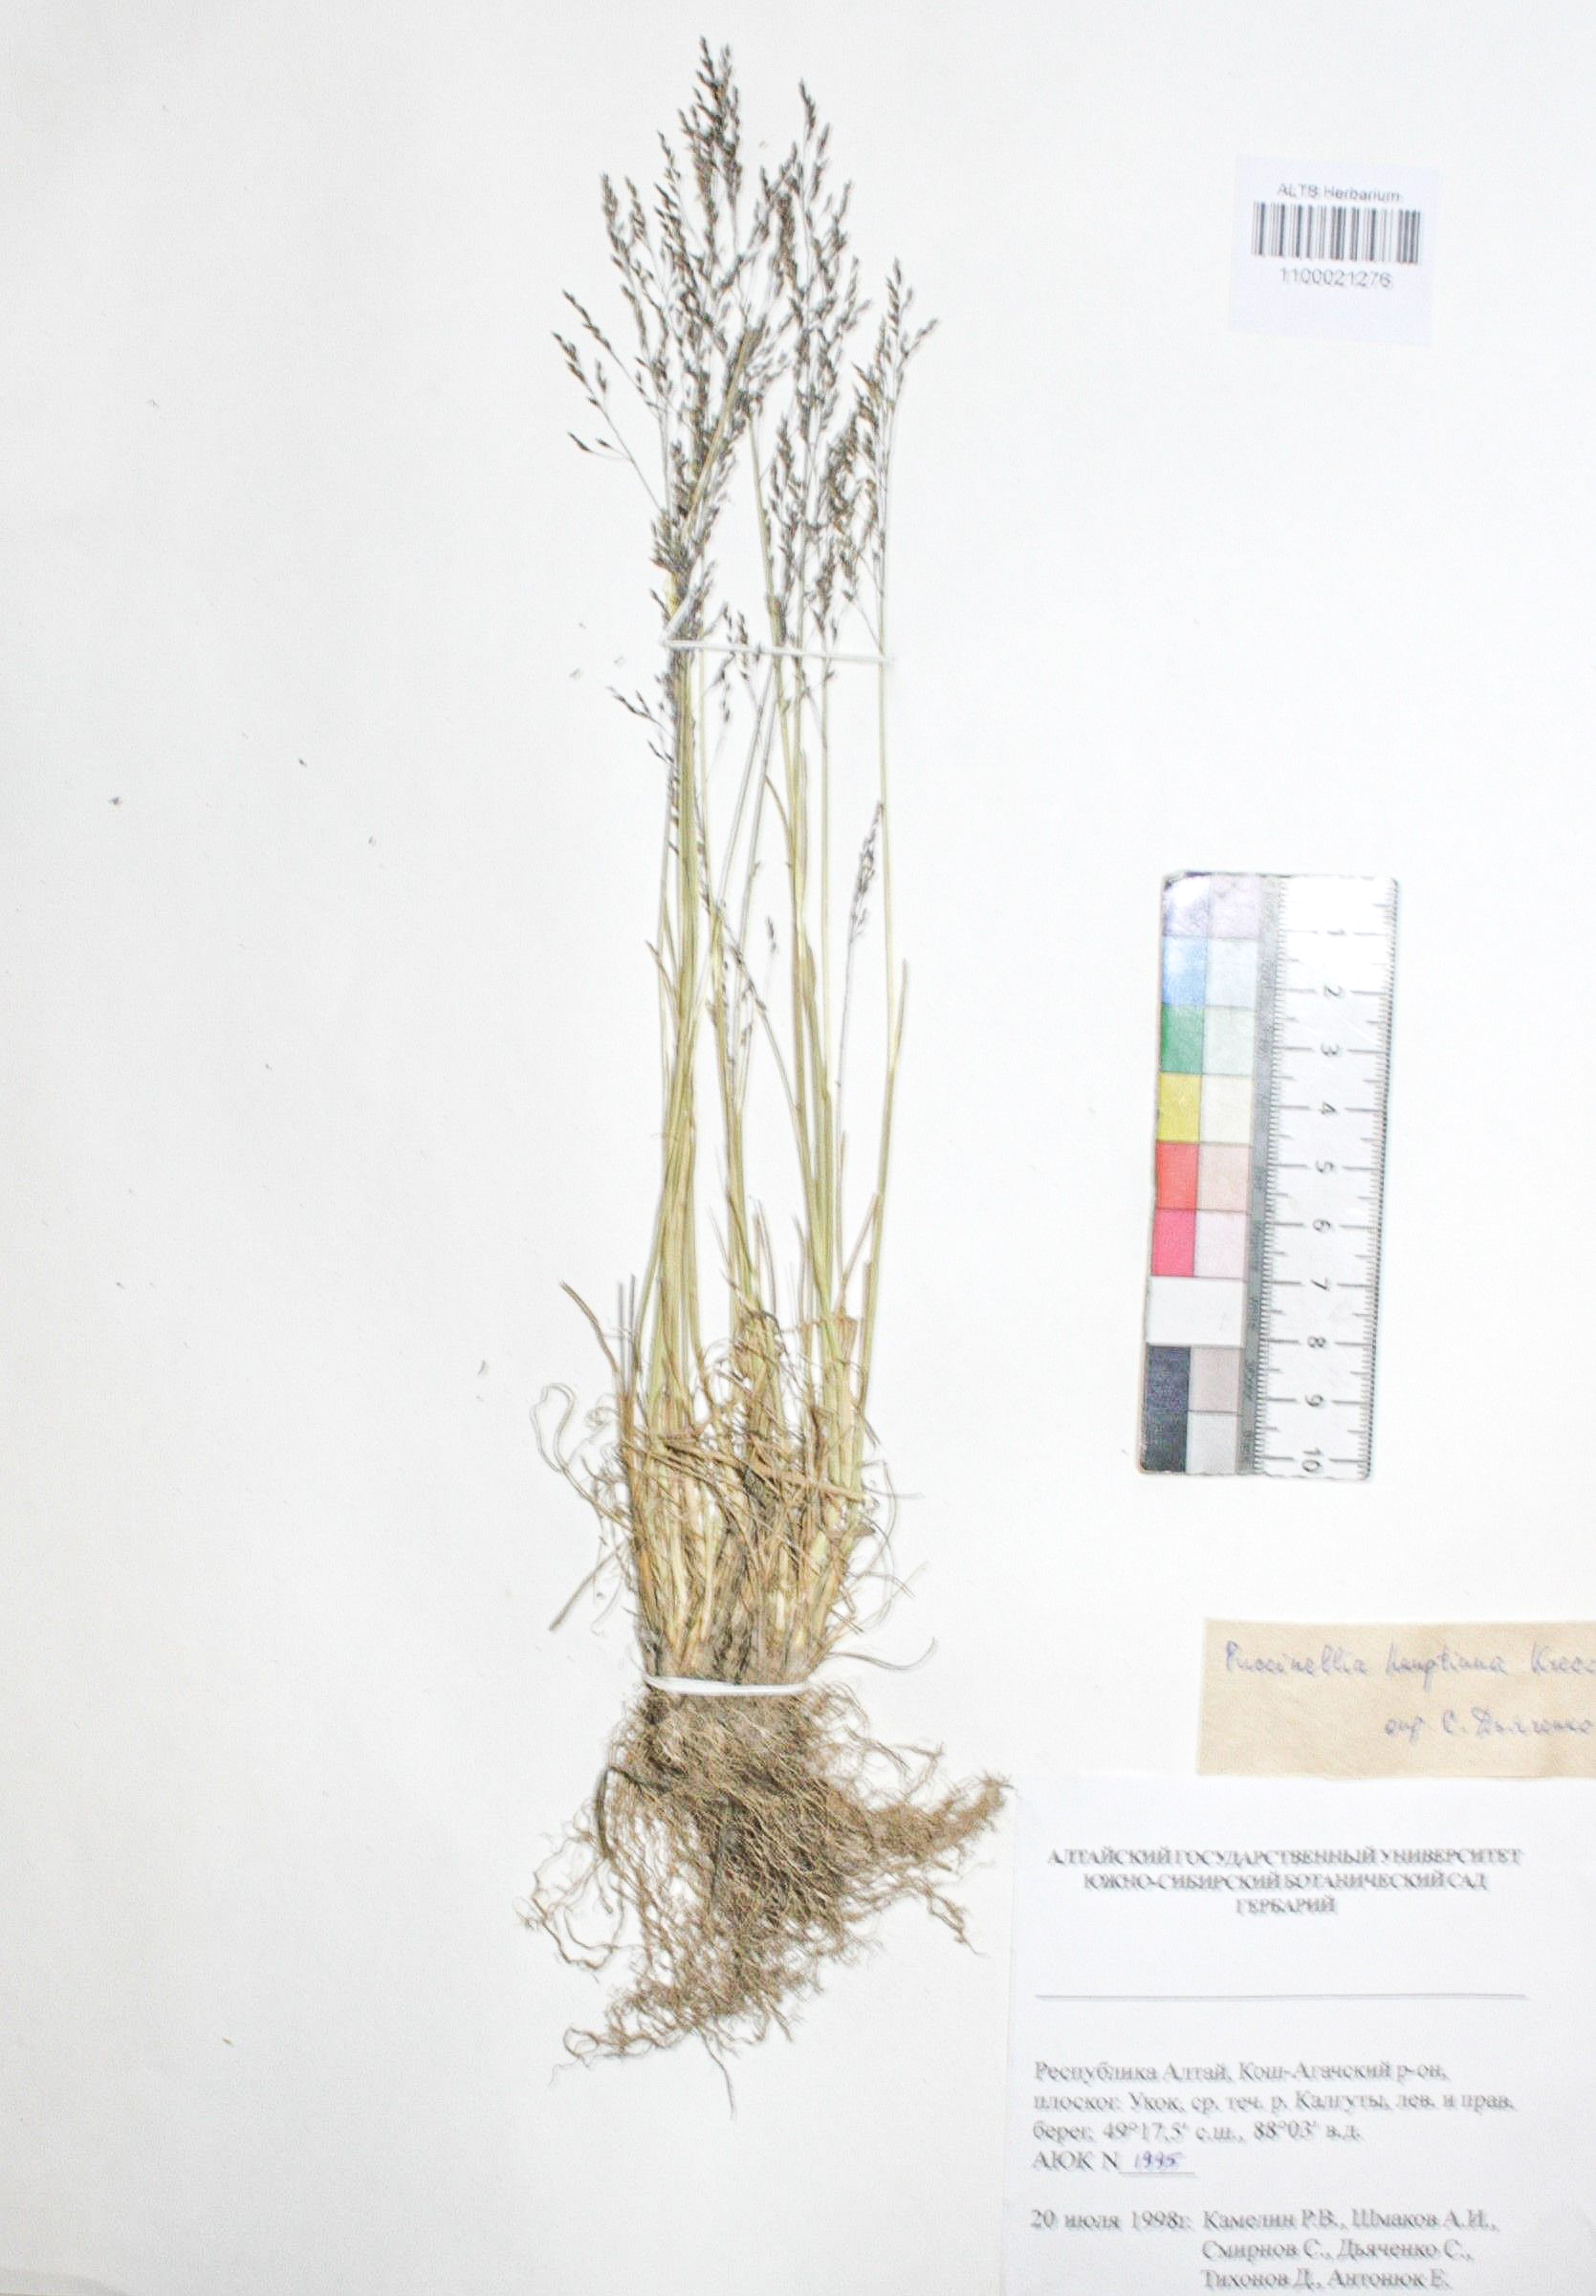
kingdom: Plantae
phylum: Tracheophyta
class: Liliopsida
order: Poales
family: Poaceae
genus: Puccinellia
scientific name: Puccinellia hauptiana
